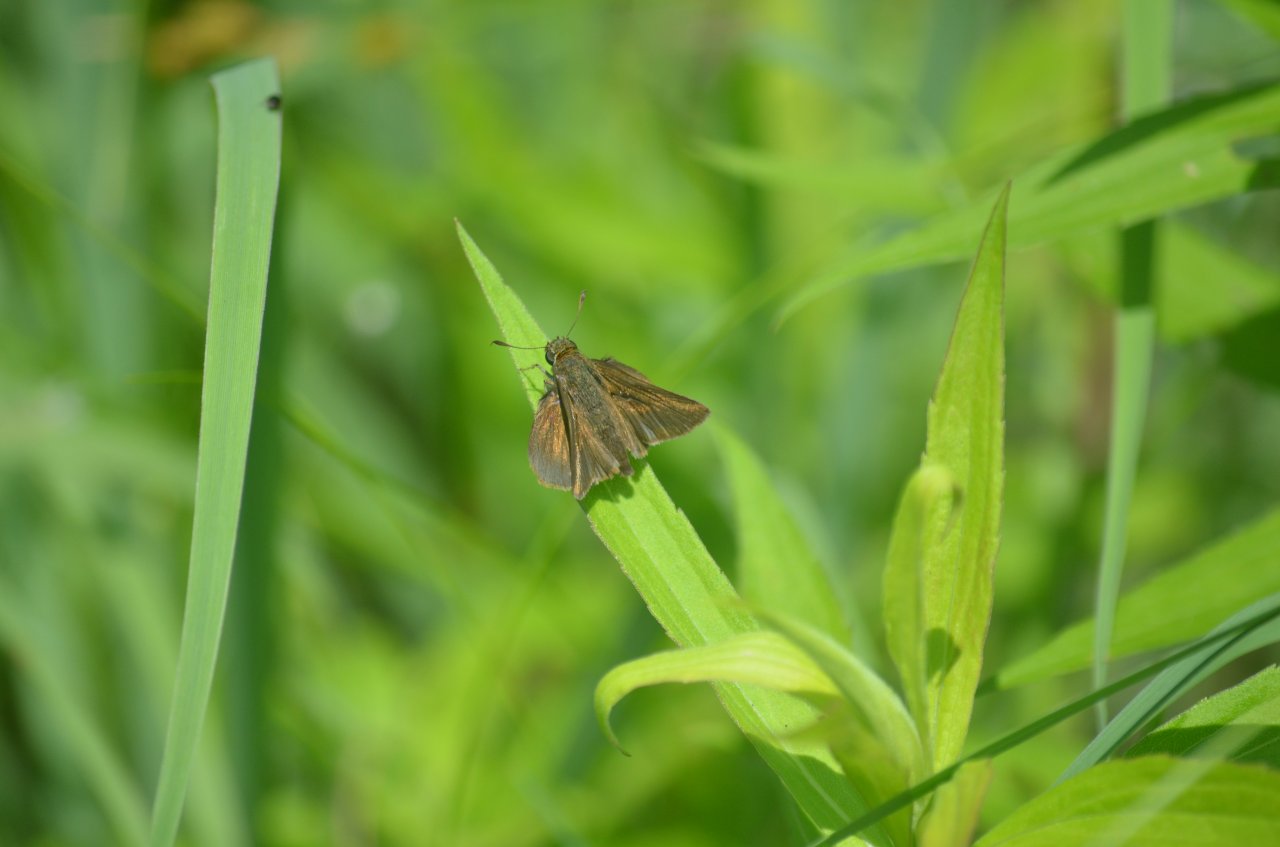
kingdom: Animalia
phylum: Arthropoda
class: Insecta
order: Lepidoptera
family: Hesperiidae
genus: Euphyes
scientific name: Euphyes vestris
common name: Dun Skipper
